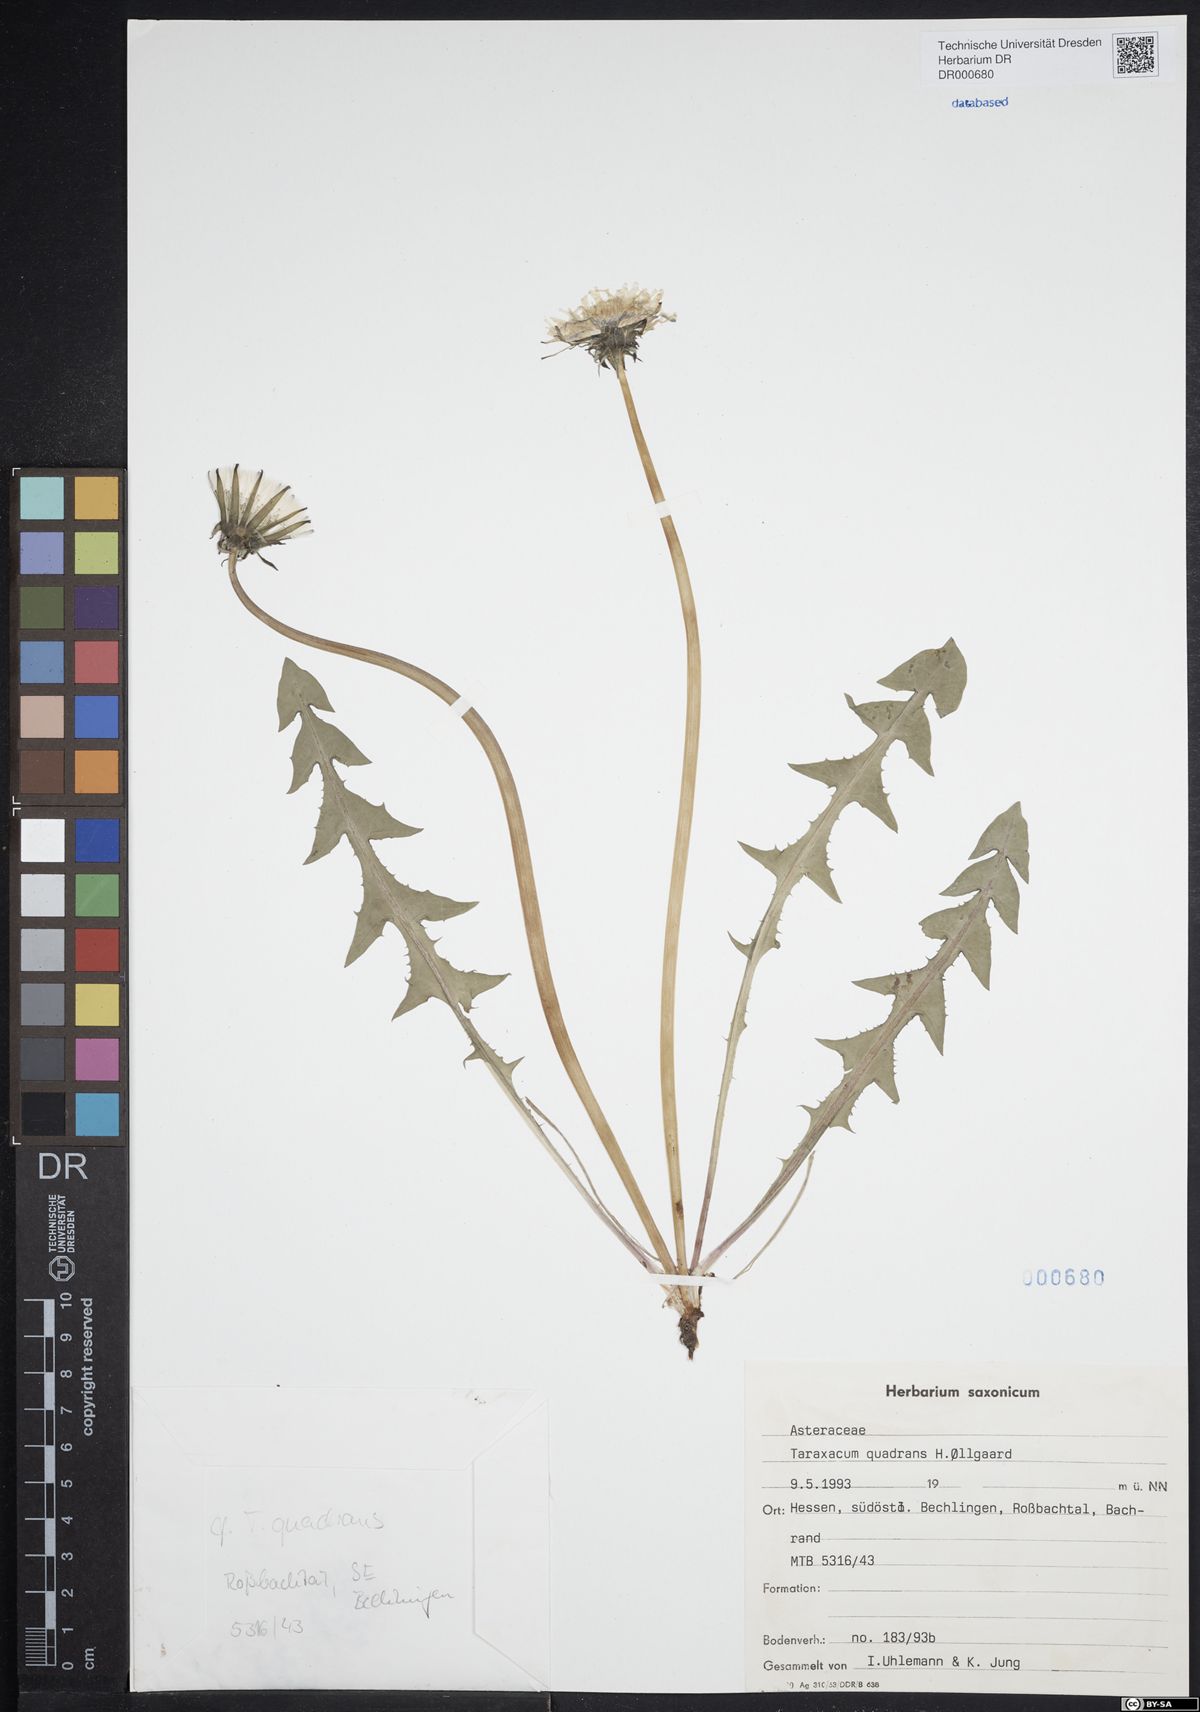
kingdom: Plantae
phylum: Tracheophyta
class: Magnoliopsida
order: Asterales
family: Asteraceae
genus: Taraxacum
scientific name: Taraxacum quadrans
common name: Fleshy-lobed dandelion
